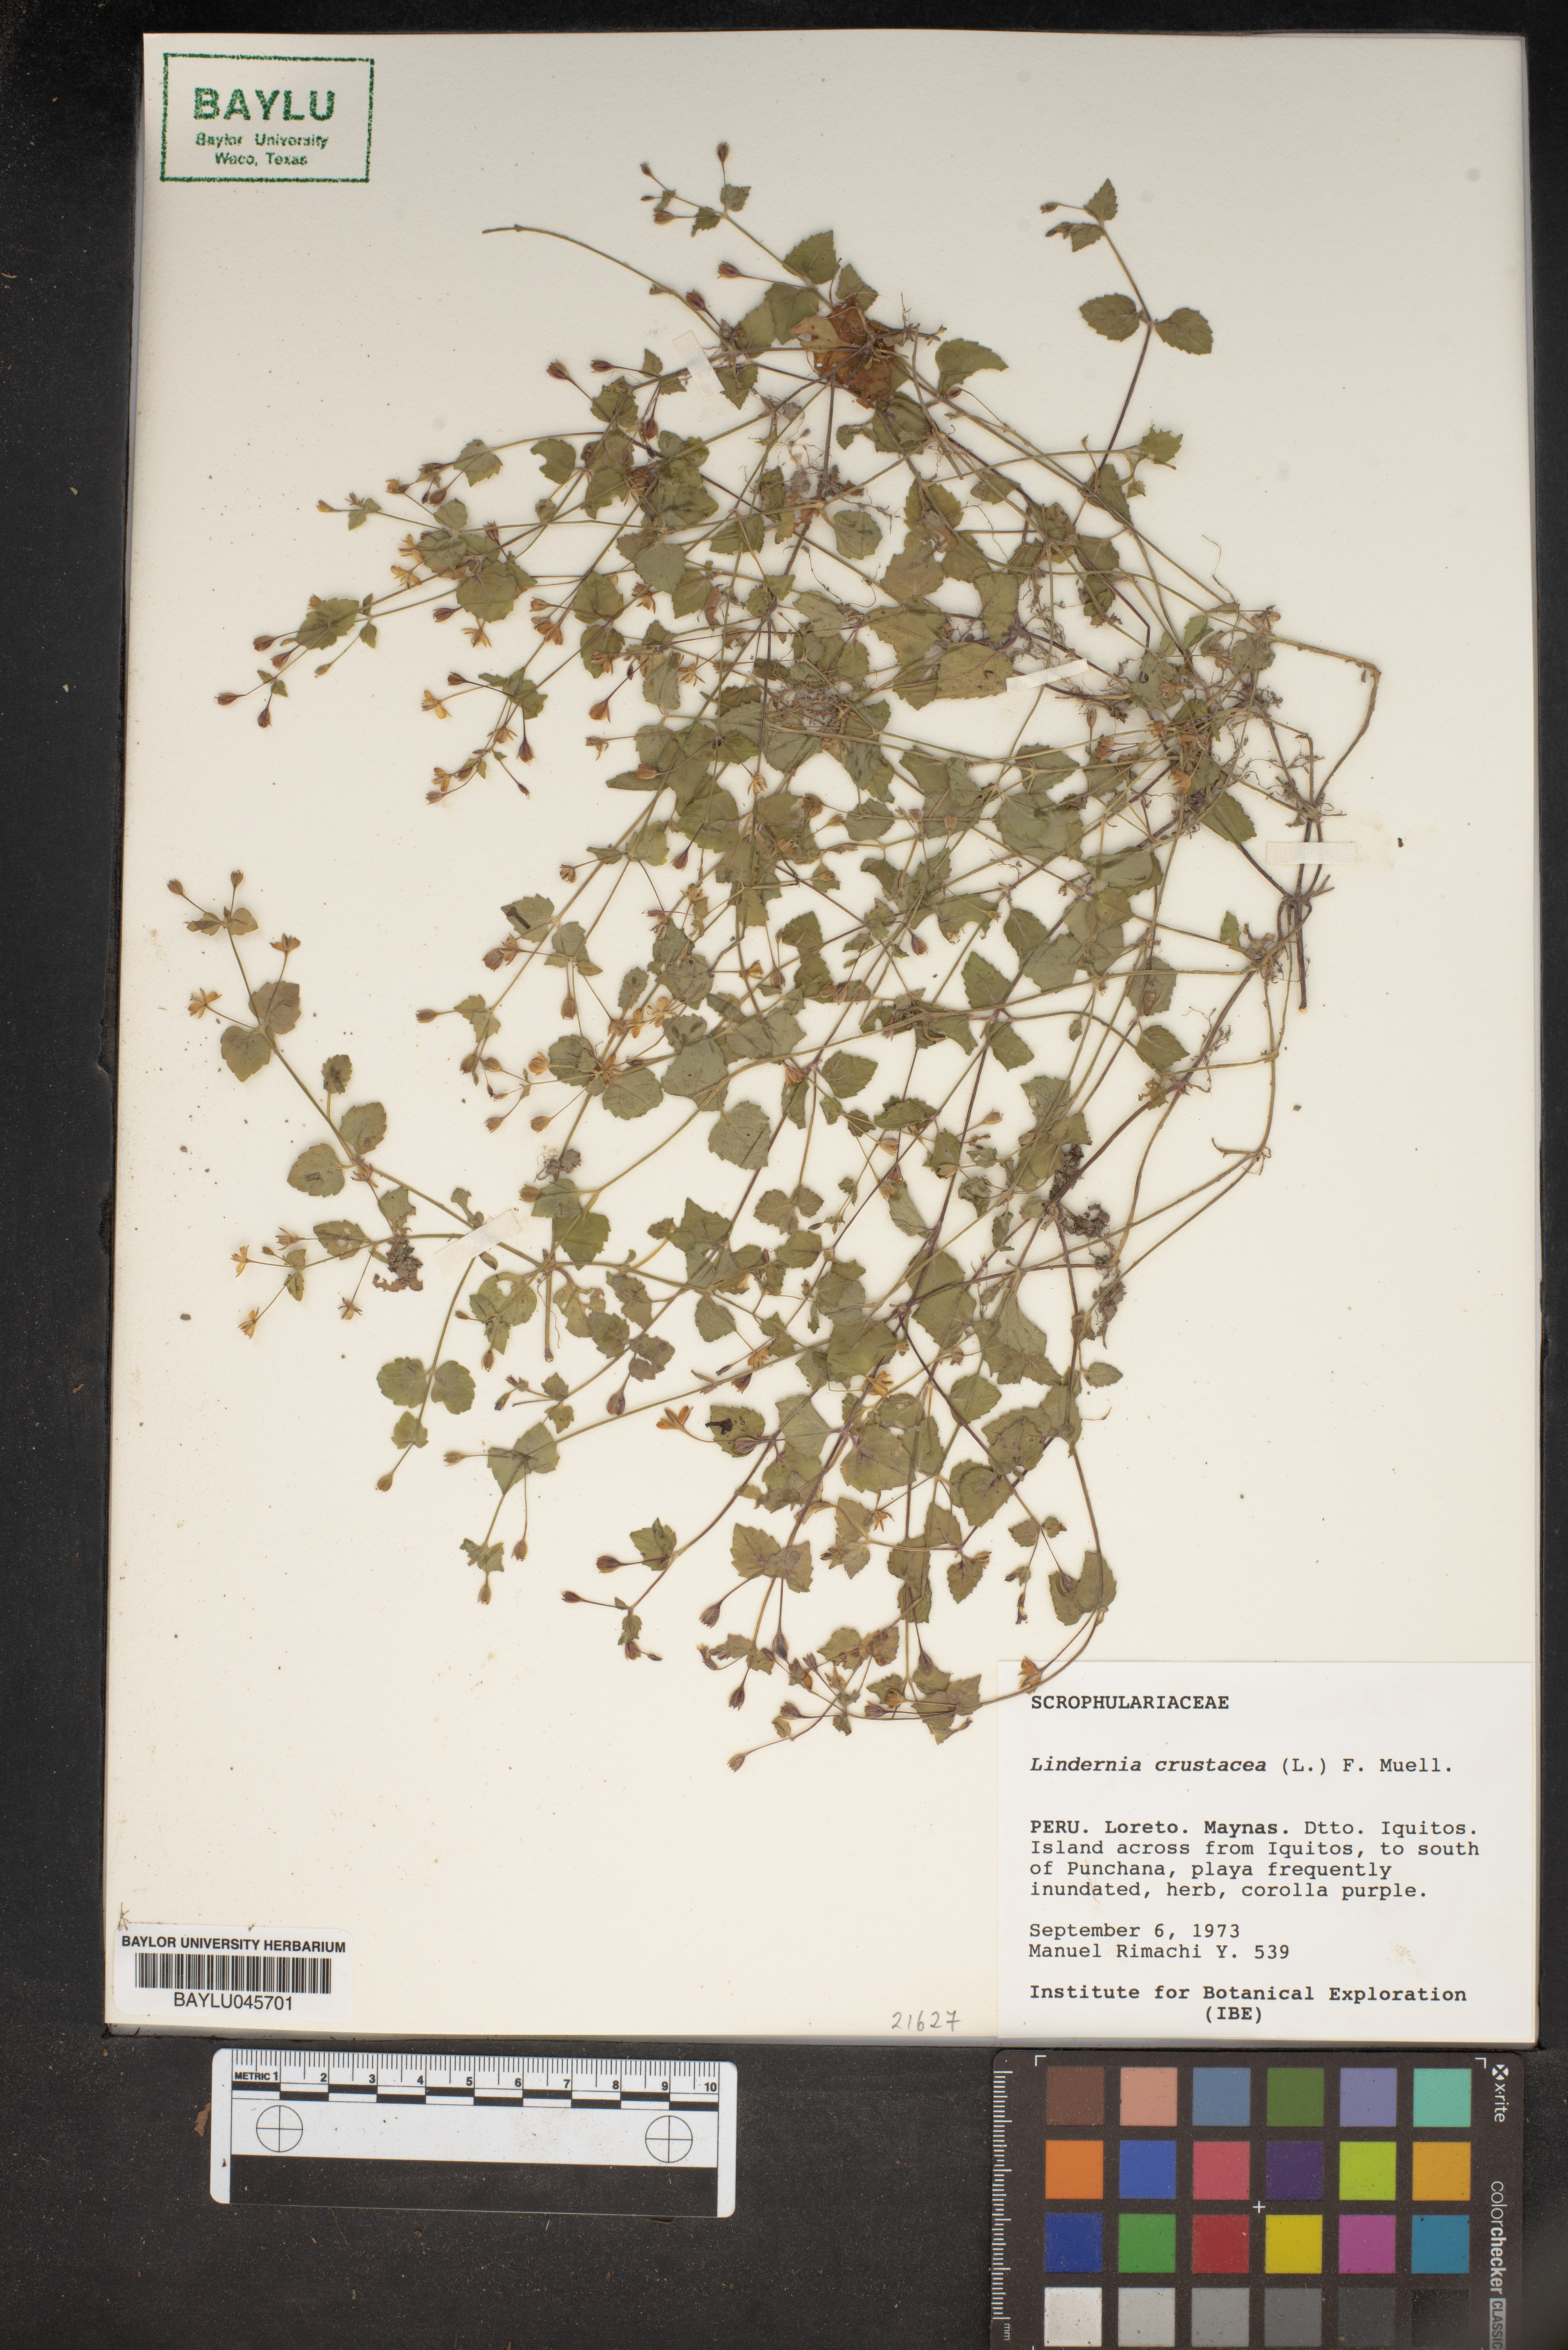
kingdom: Plantae
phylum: Tracheophyta
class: Magnoliopsida
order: Lamiales
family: Linderniaceae
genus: Torenia
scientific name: Torenia crustacea
